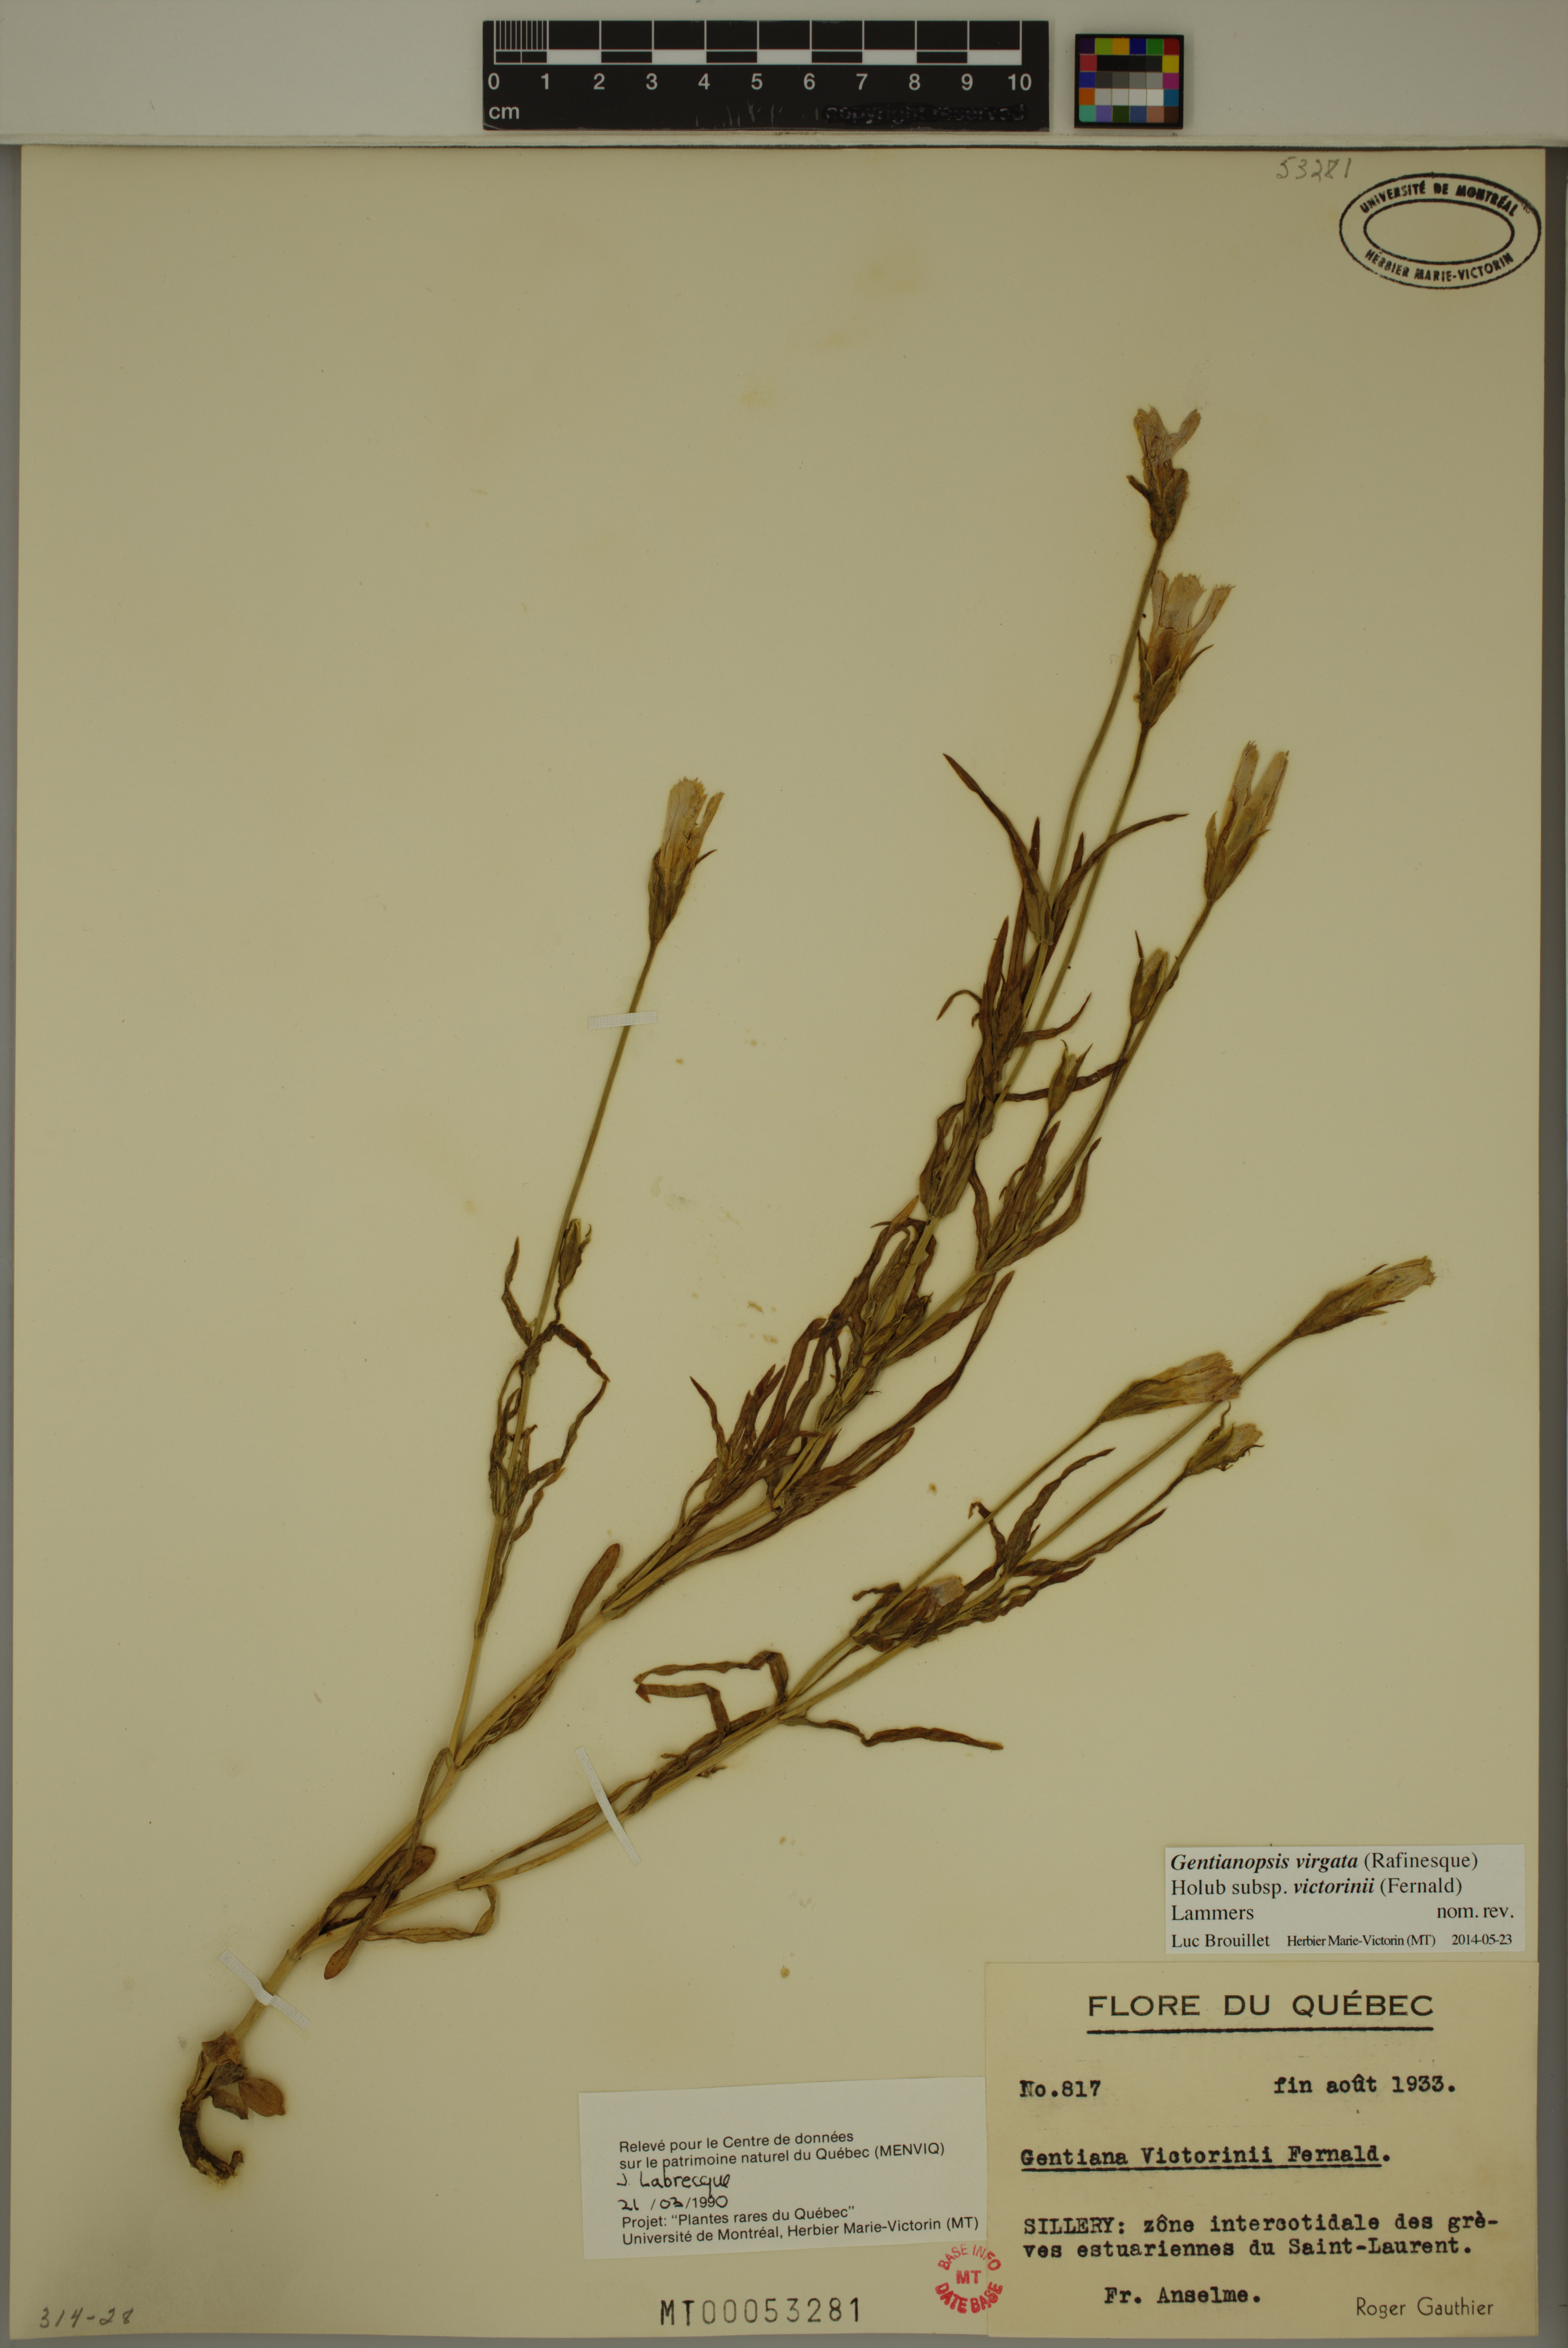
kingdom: Plantae
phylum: Tracheophyta
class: Magnoliopsida
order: Gentianales
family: Gentianaceae
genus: Gentianopsis
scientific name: Gentianopsis victorinii
